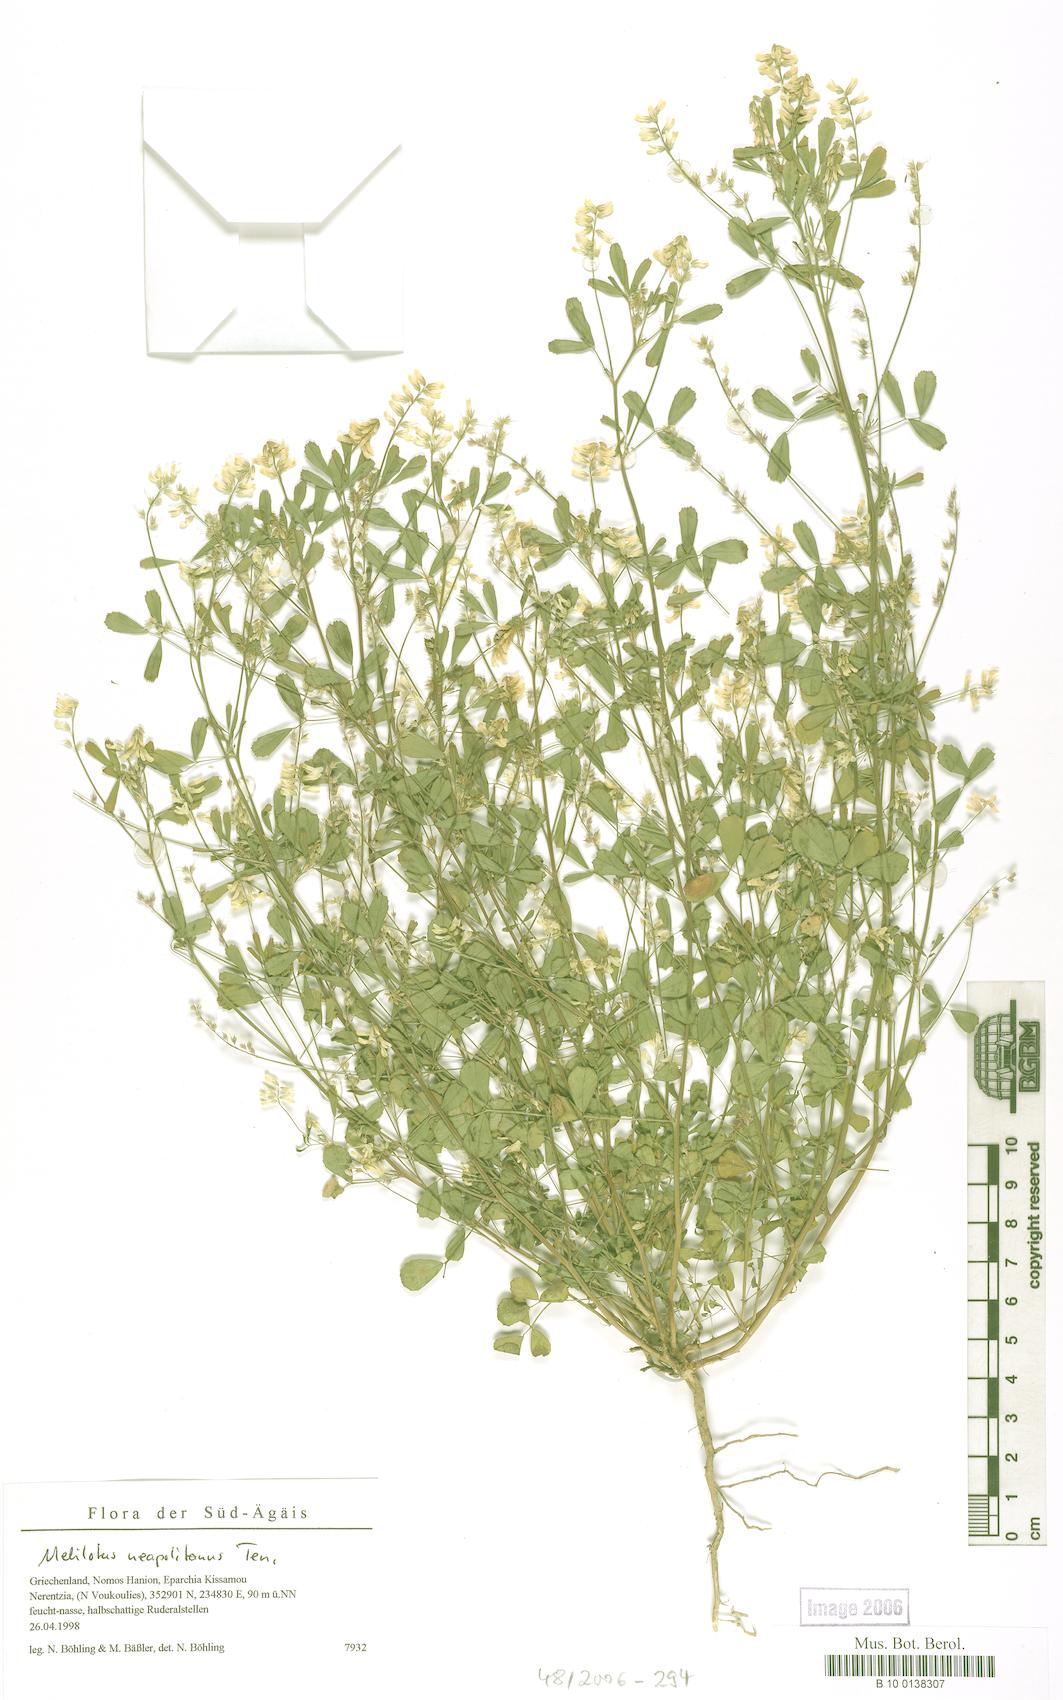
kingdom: Plantae
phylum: Tracheophyta
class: Magnoliopsida
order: Fabales
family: Fabaceae
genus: Melilotus
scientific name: Melilotus neapolitanus
